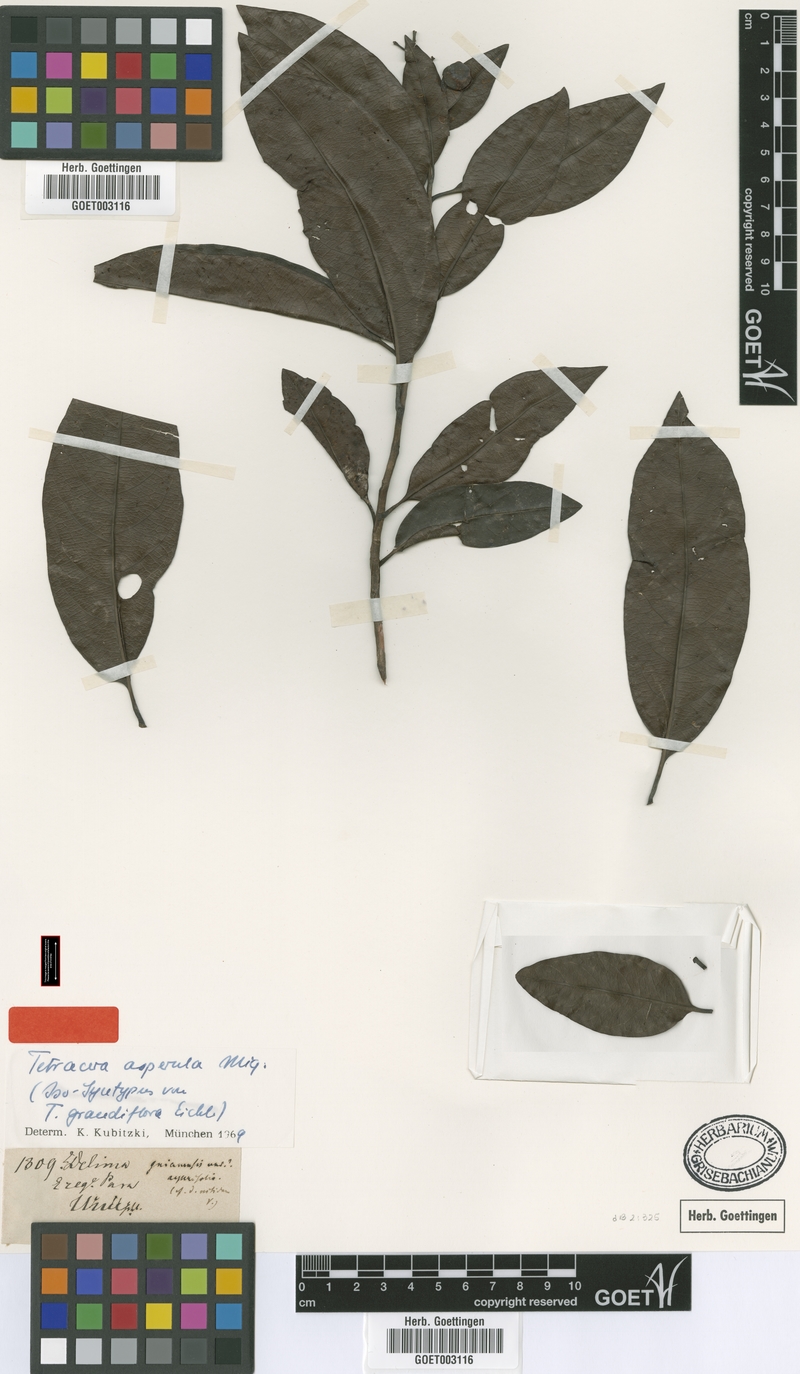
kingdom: Plantae
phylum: Tracheophyta
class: Magnoliopsida
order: Dilleniales
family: Dilleniaceae
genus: Tetracera
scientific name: Tetracera asperula
